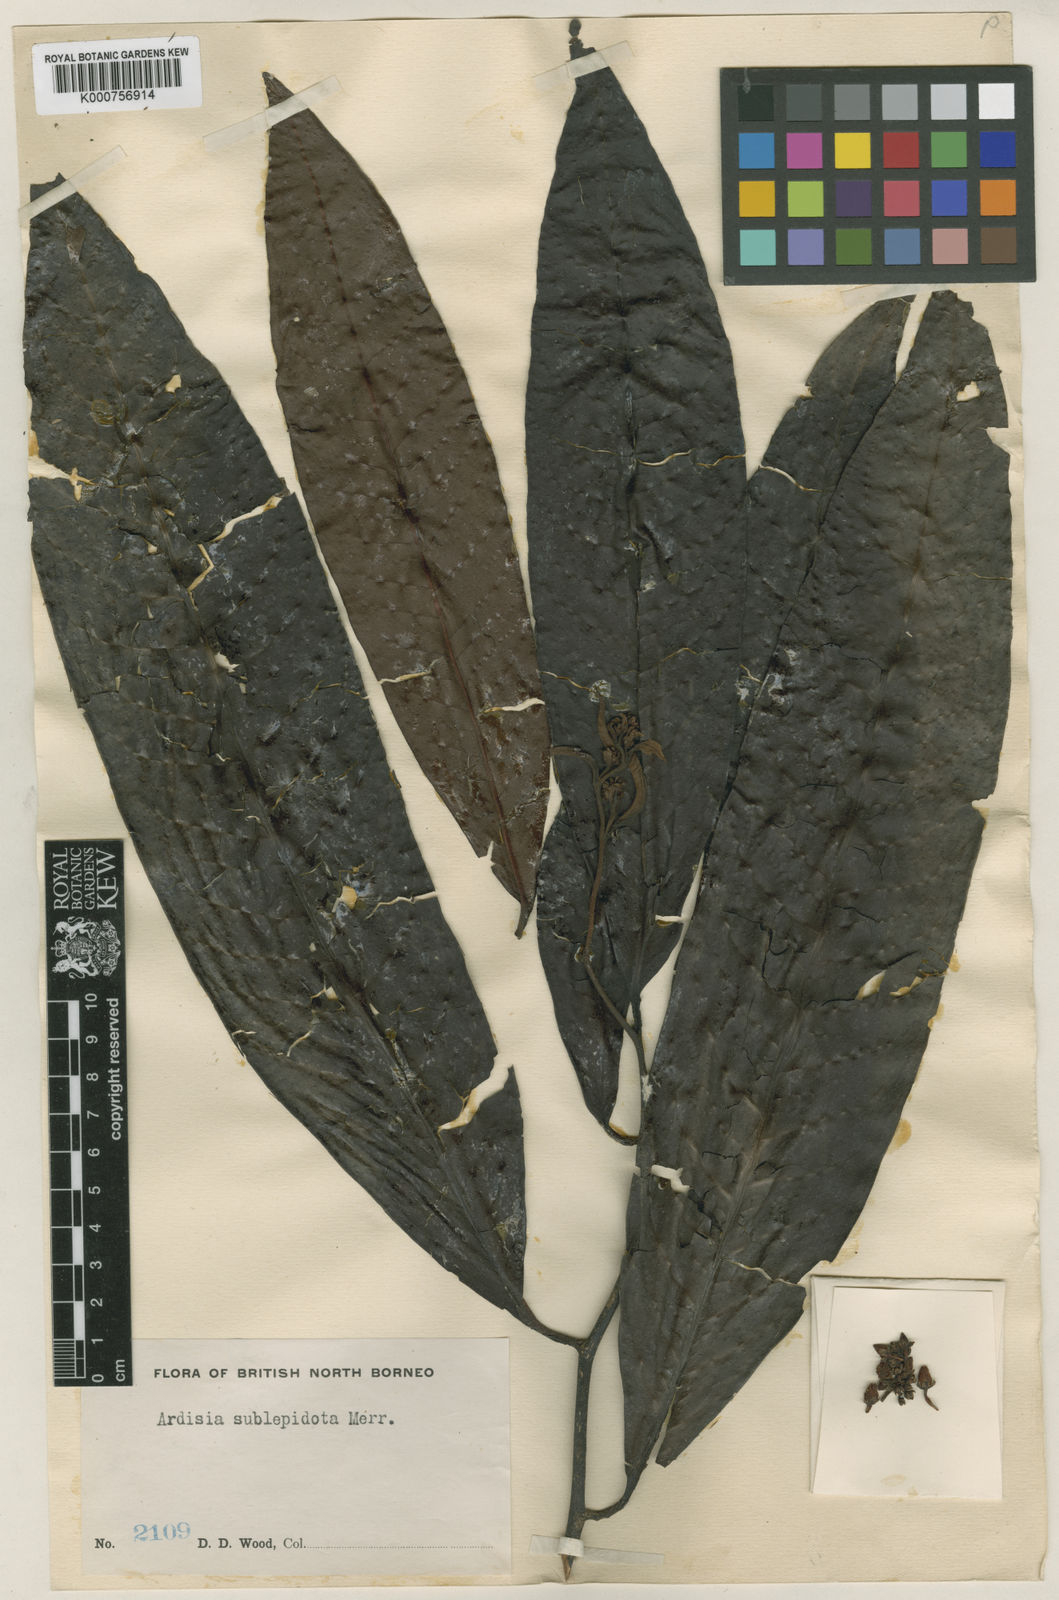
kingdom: Plantae
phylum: Tracheophyta
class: Magnoliopsida
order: Ericales
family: Primulaceae
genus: Ardisia
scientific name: Ardisia sublepidota
